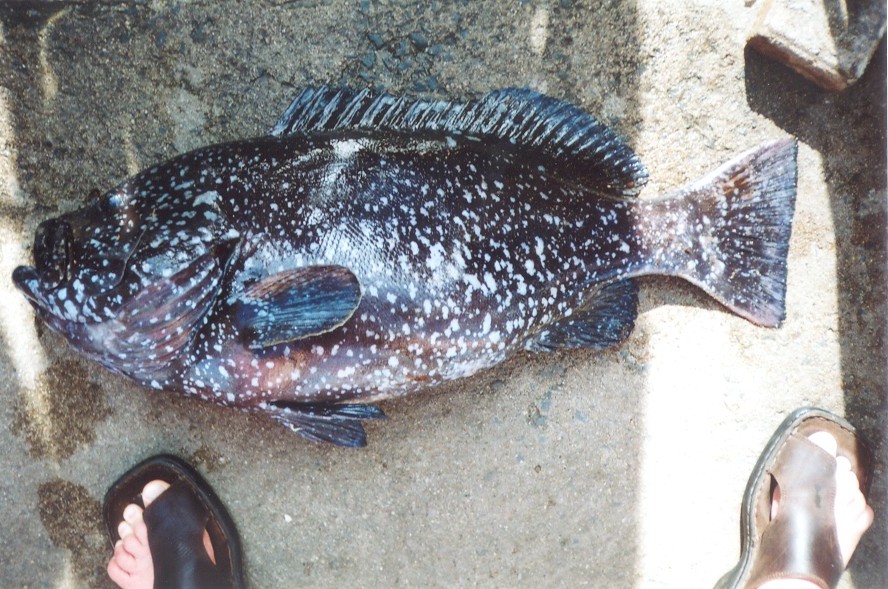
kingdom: Animalia
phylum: Chordata
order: Perciformes
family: Serranidae
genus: Epinephelus
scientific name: Epinephelus multinotatus
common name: Rankin's cod
